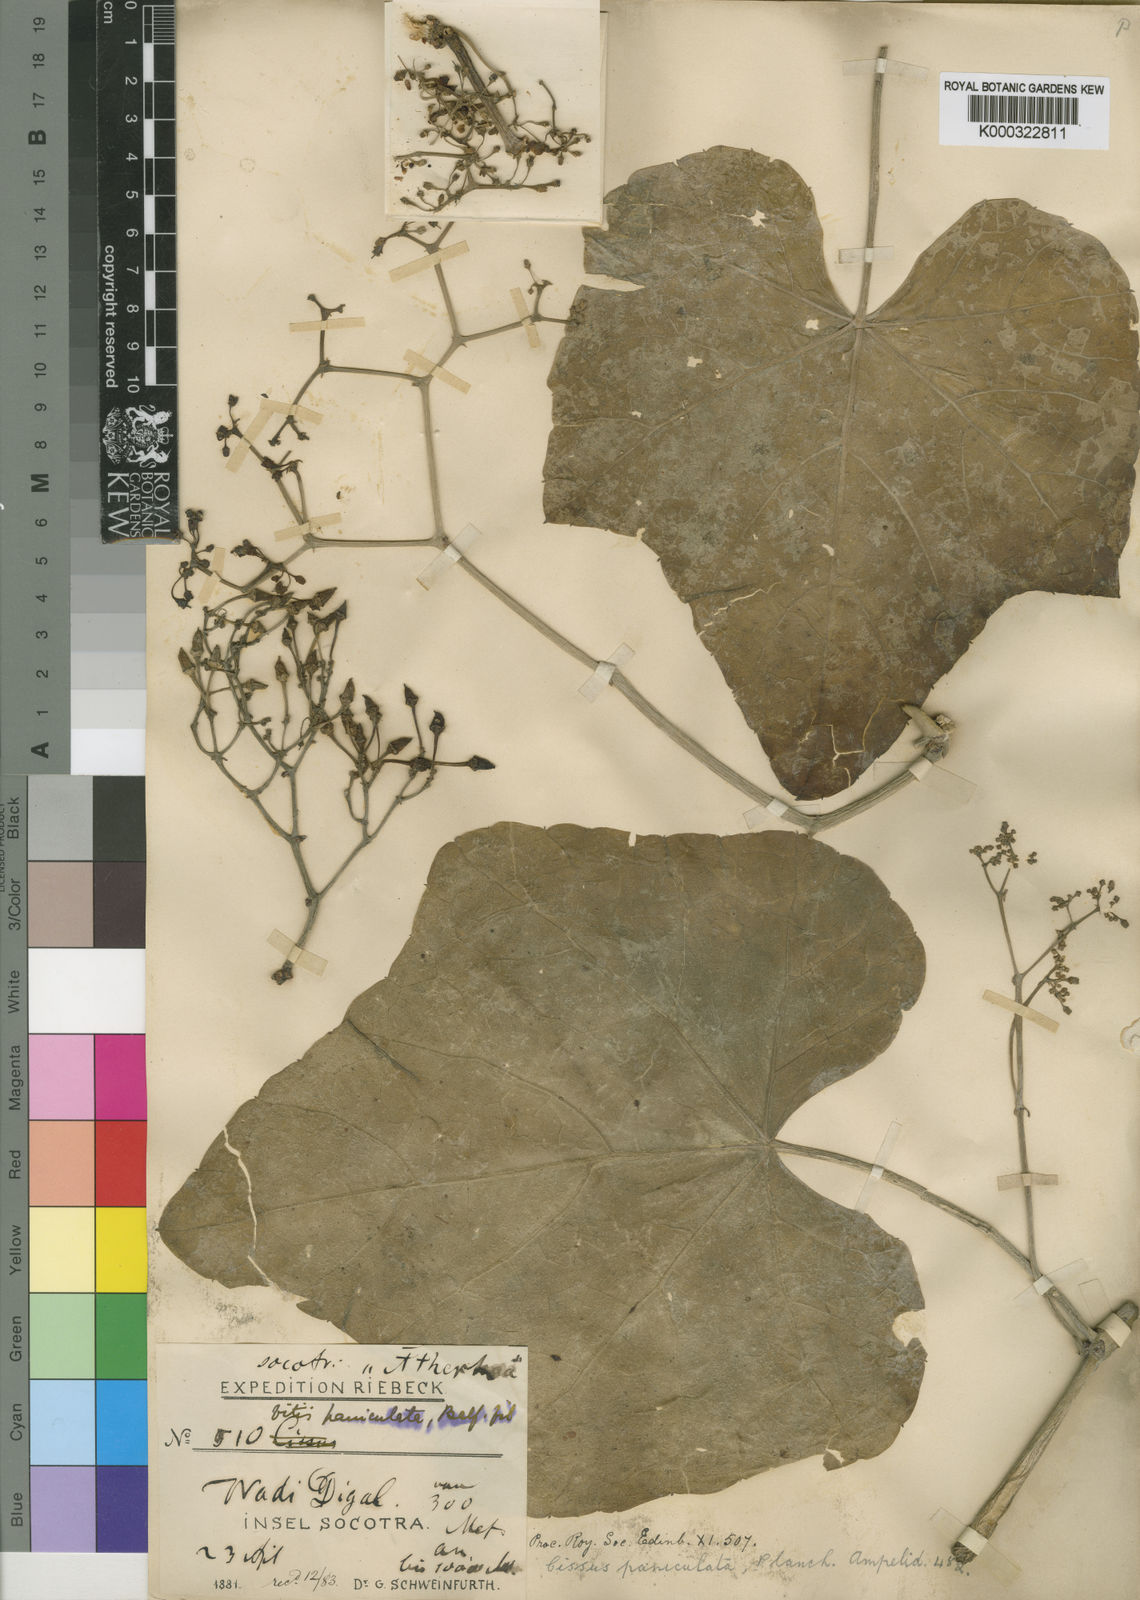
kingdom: Plantae
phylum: Tracheophyta
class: Magnoliopsida
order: Vitales
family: Vitaceae
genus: Cissus
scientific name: Cissus paniculata
